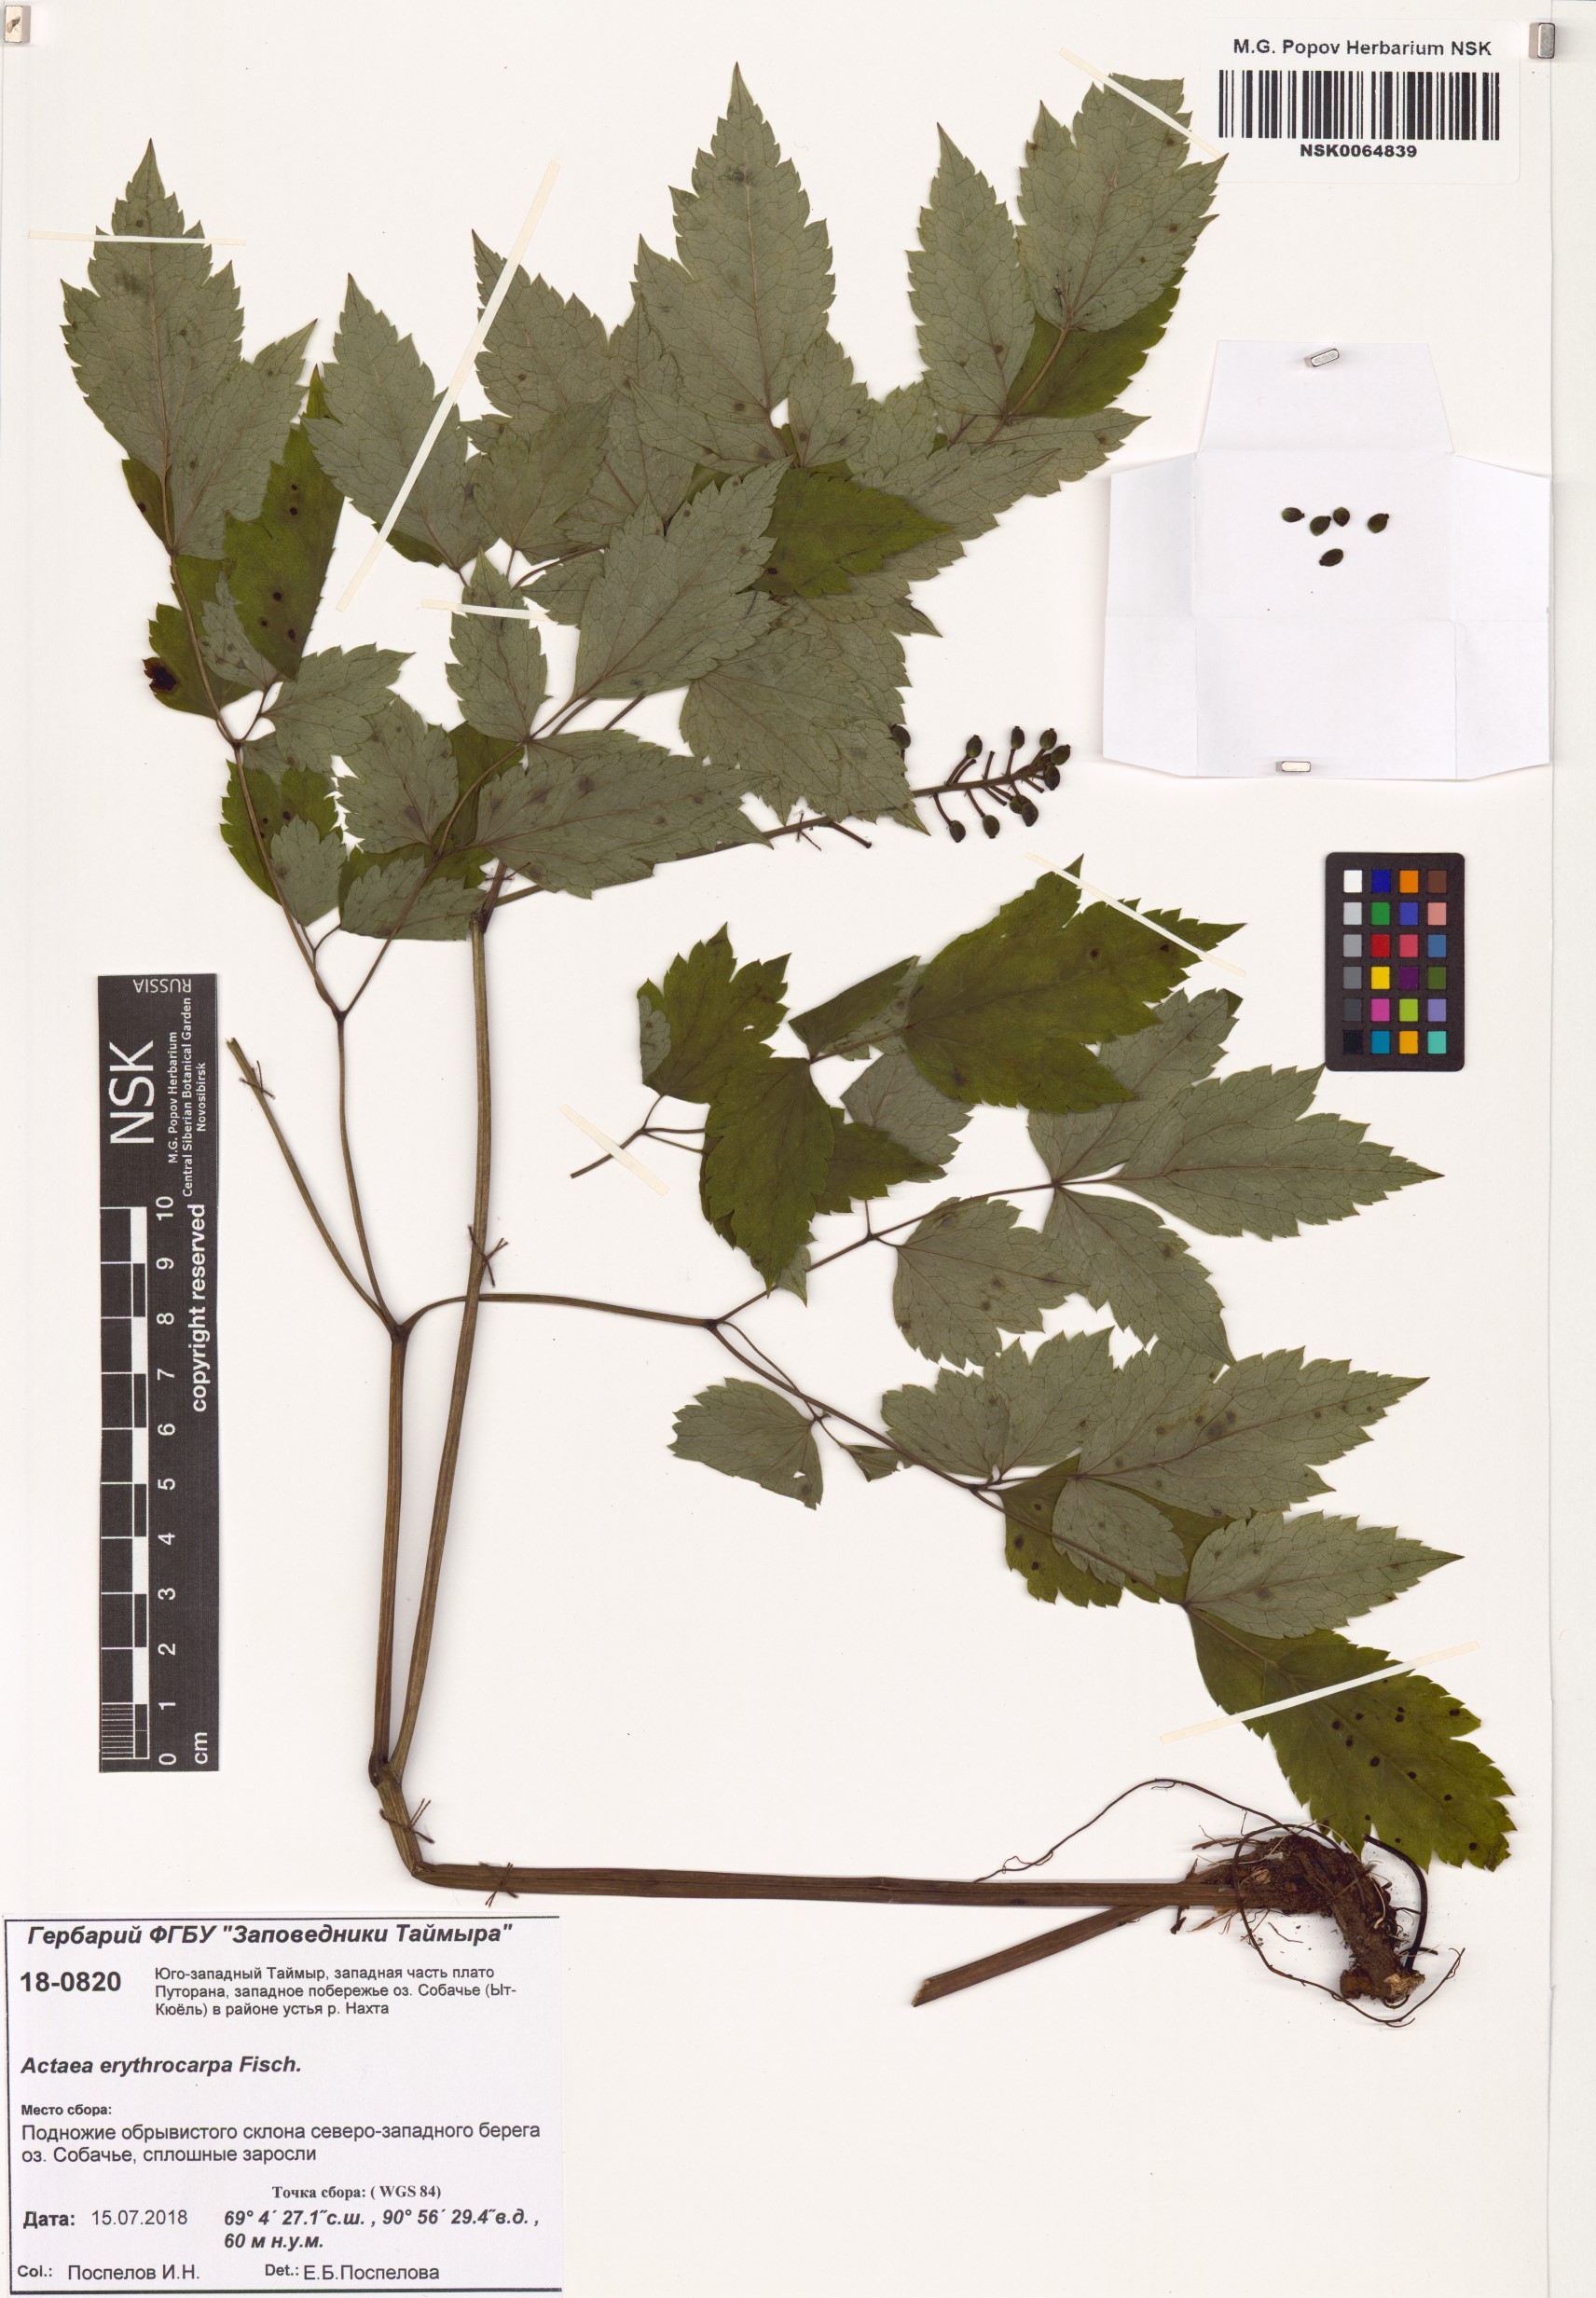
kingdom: Plantae
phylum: Tracheophyta
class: Magnoliopsida
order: Ranunculales
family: Ranunculaceae
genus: Actaea
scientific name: Actaea erythrocarpa
